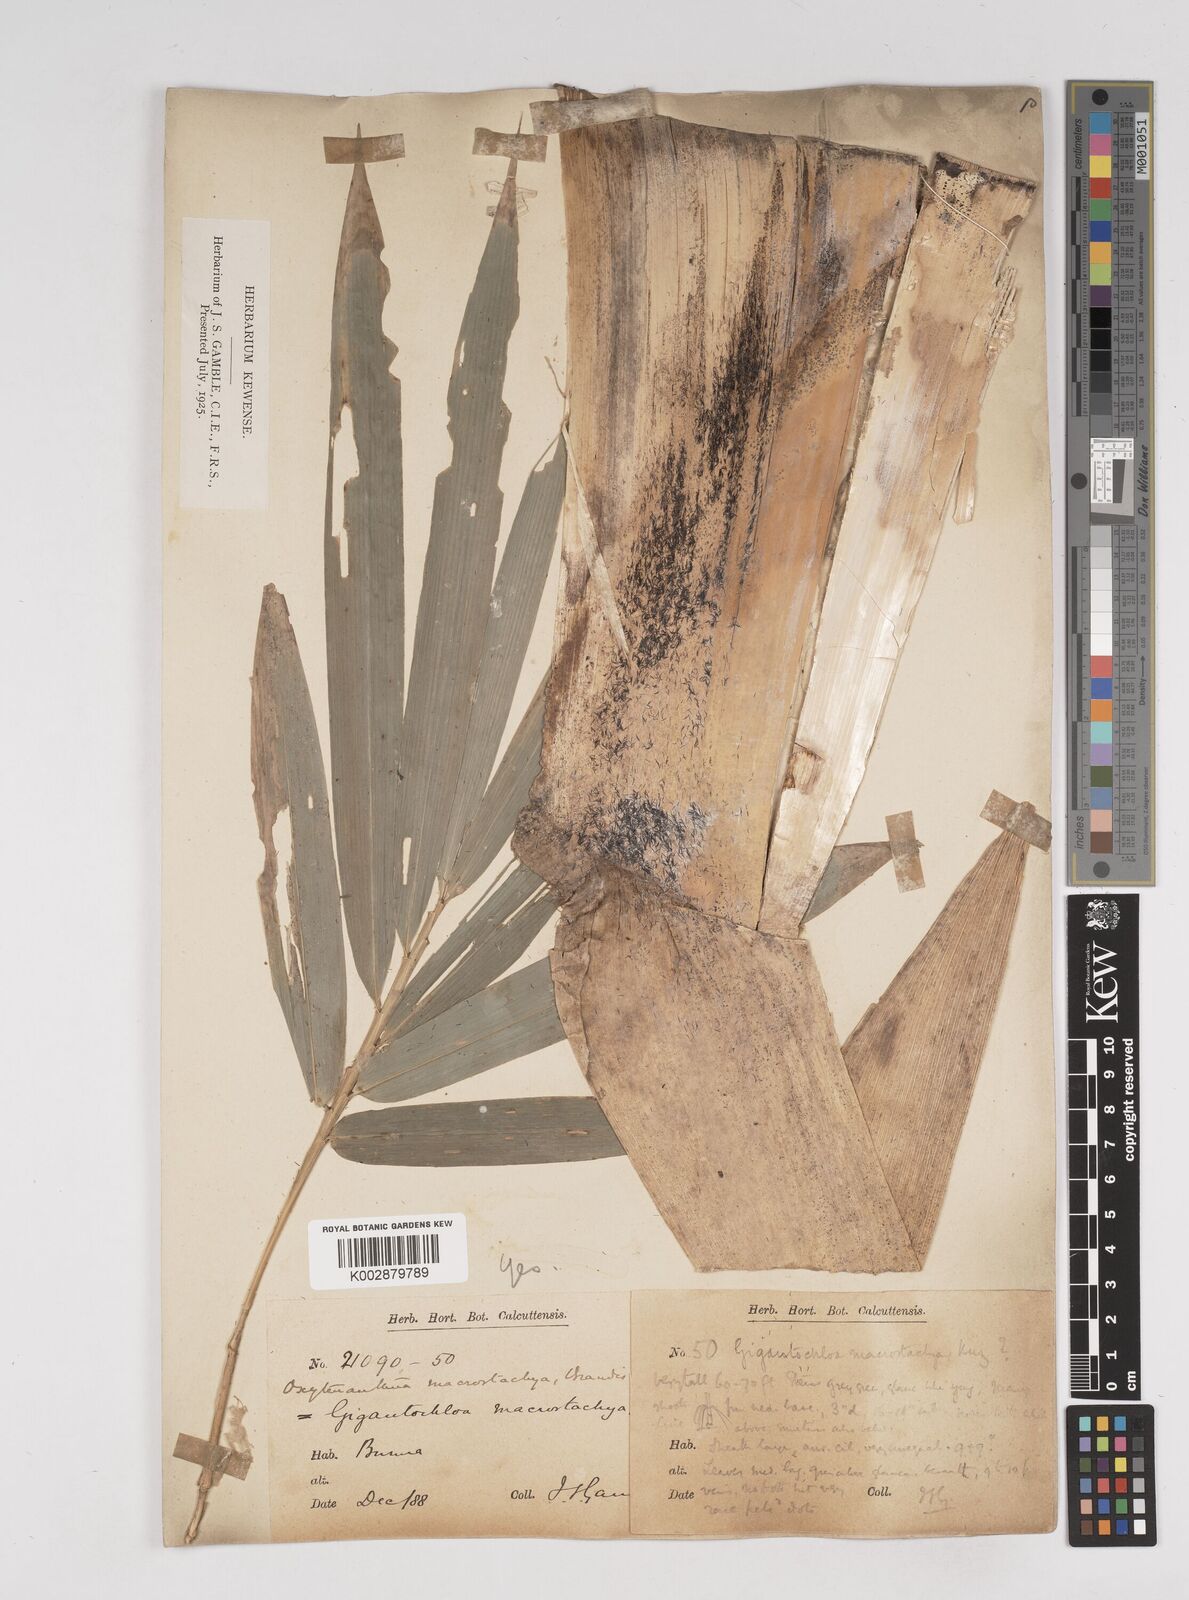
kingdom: Plantae
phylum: Tracheophyta
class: Liliopsida
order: Poales
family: Poaceae
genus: Gigantochloa
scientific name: Gigantochloa macrostachya
